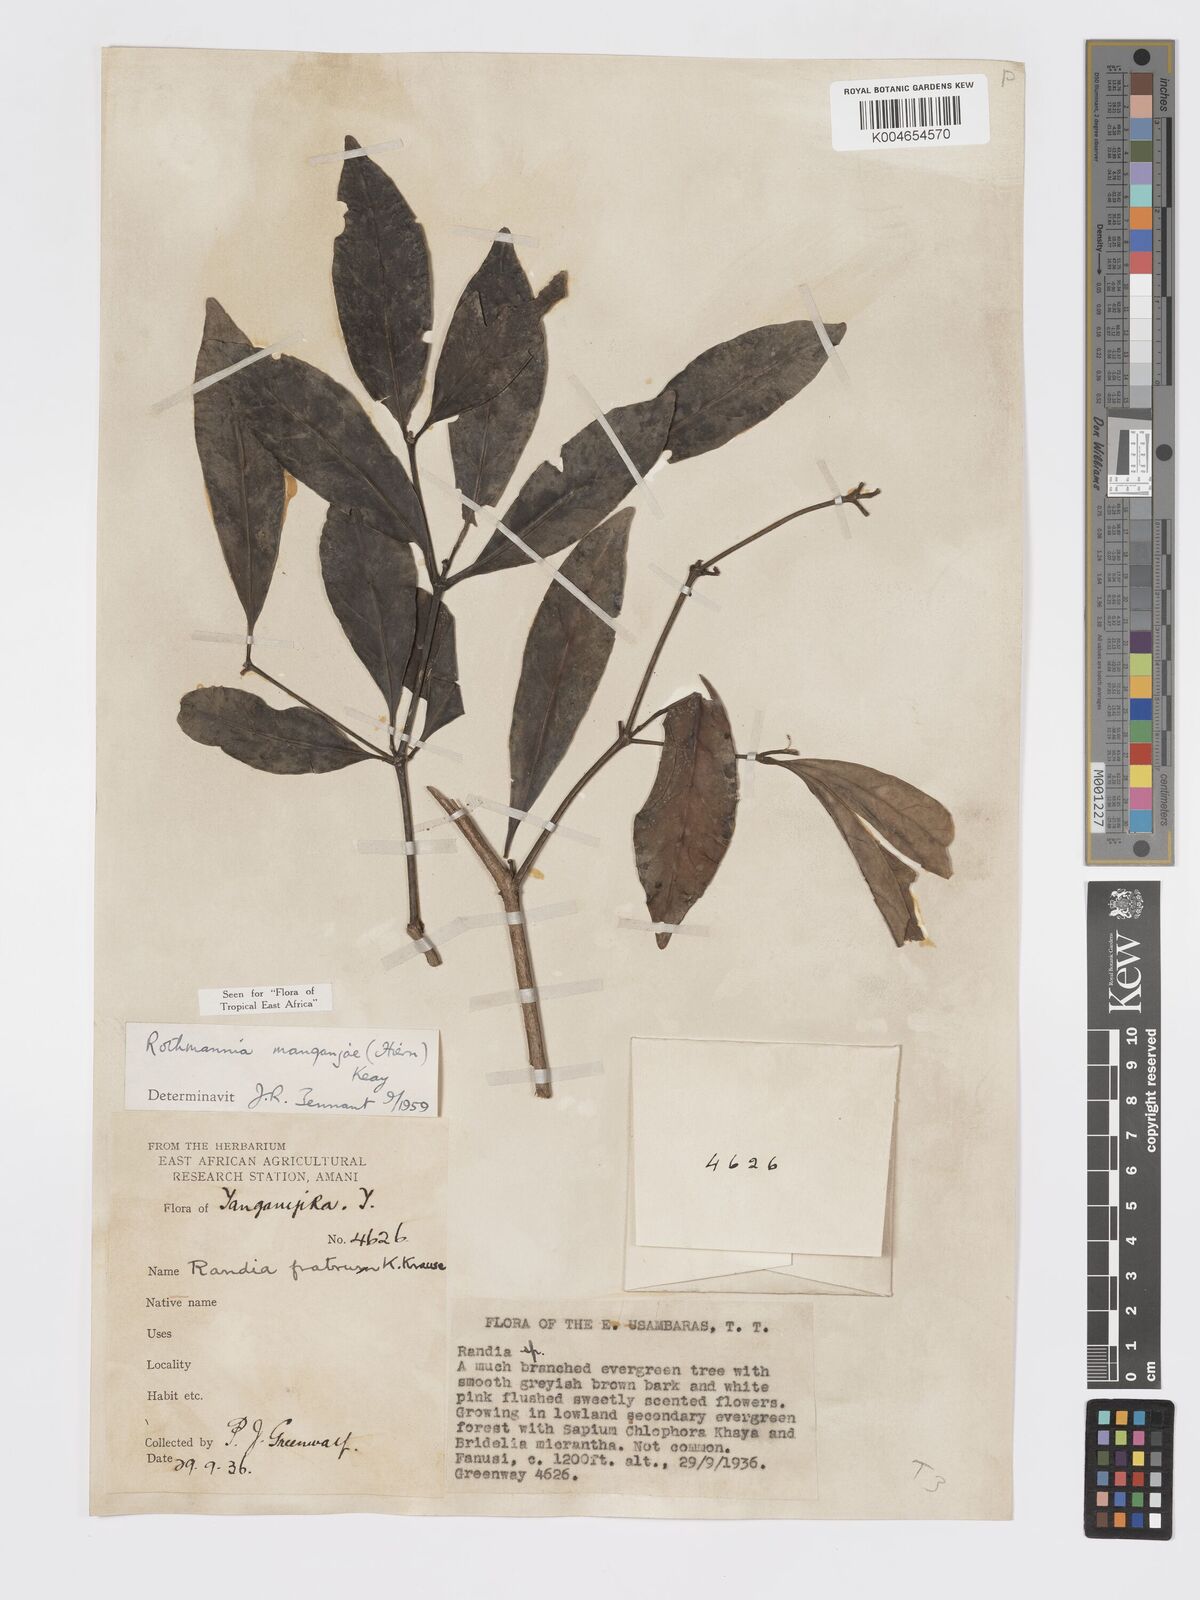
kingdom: Plantae
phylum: Tracheophyta
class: Magnoliopsida
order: Gentianales
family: Rubiaceae
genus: Rothmannia
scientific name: Rothmannia
